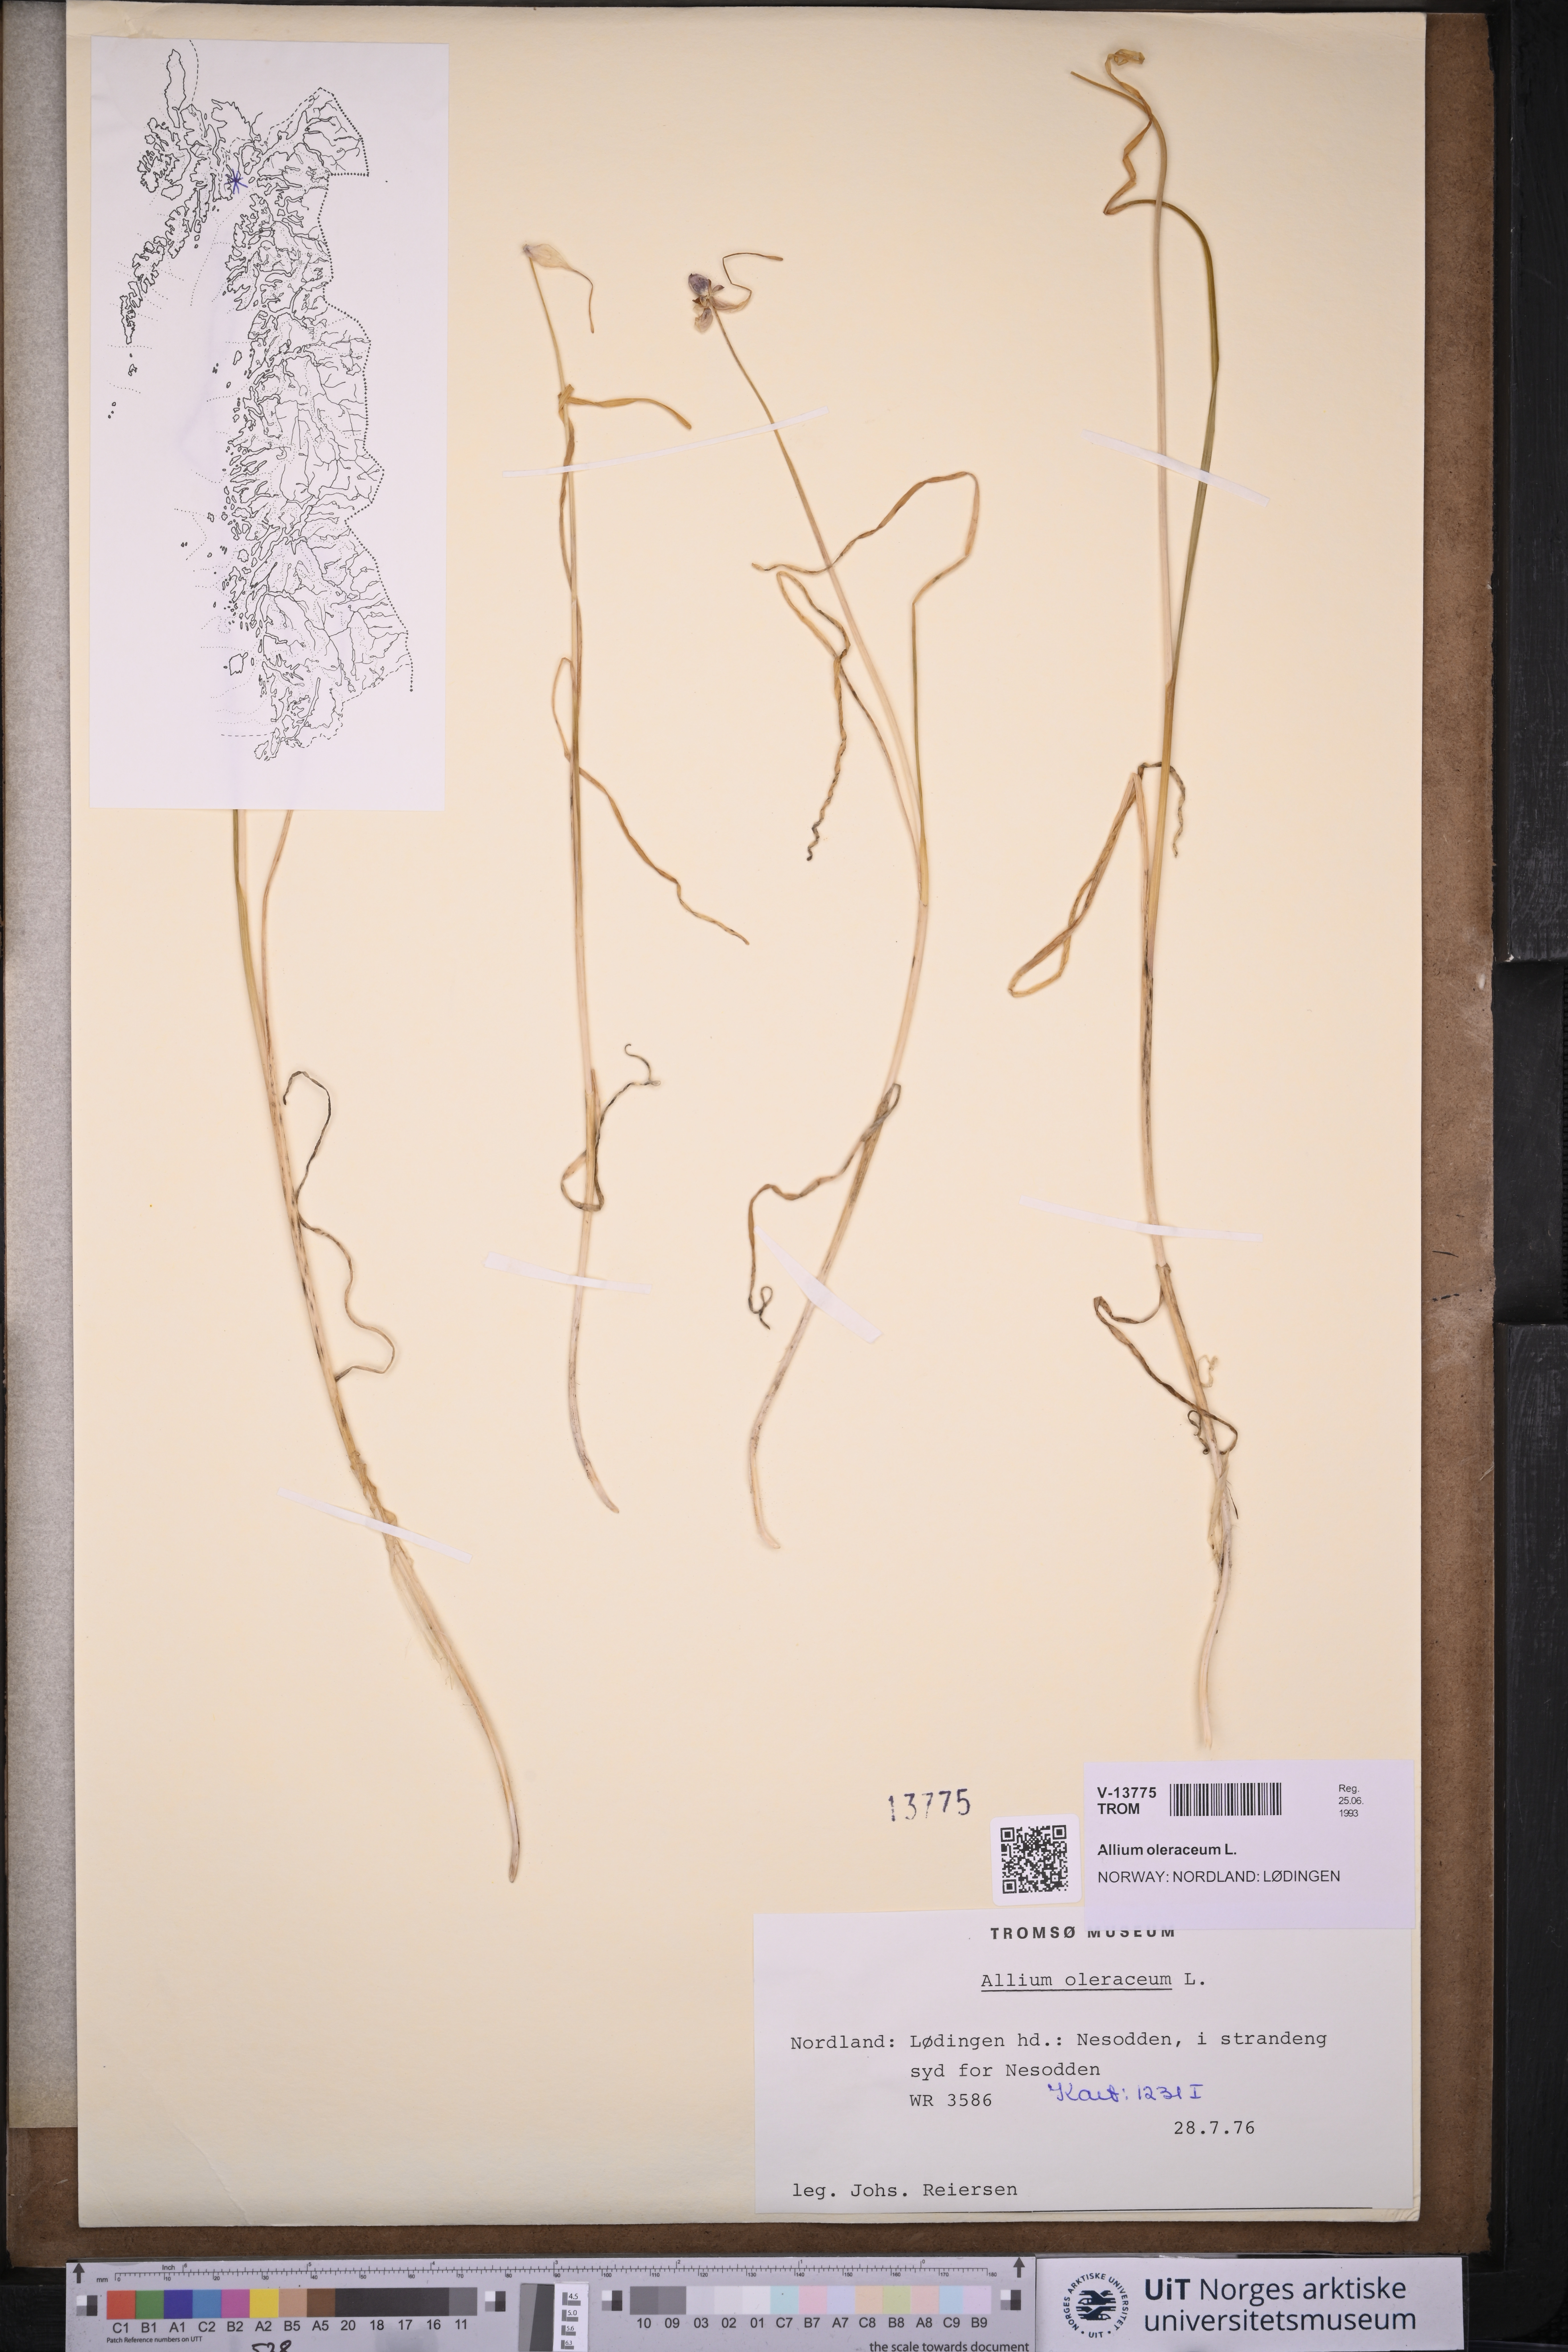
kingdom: Plantae
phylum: Tracheophyta
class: Liliopsida
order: Asparagales
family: Amaryllidaceae
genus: Allium
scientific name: Allium oleraceum
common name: Field garlic
